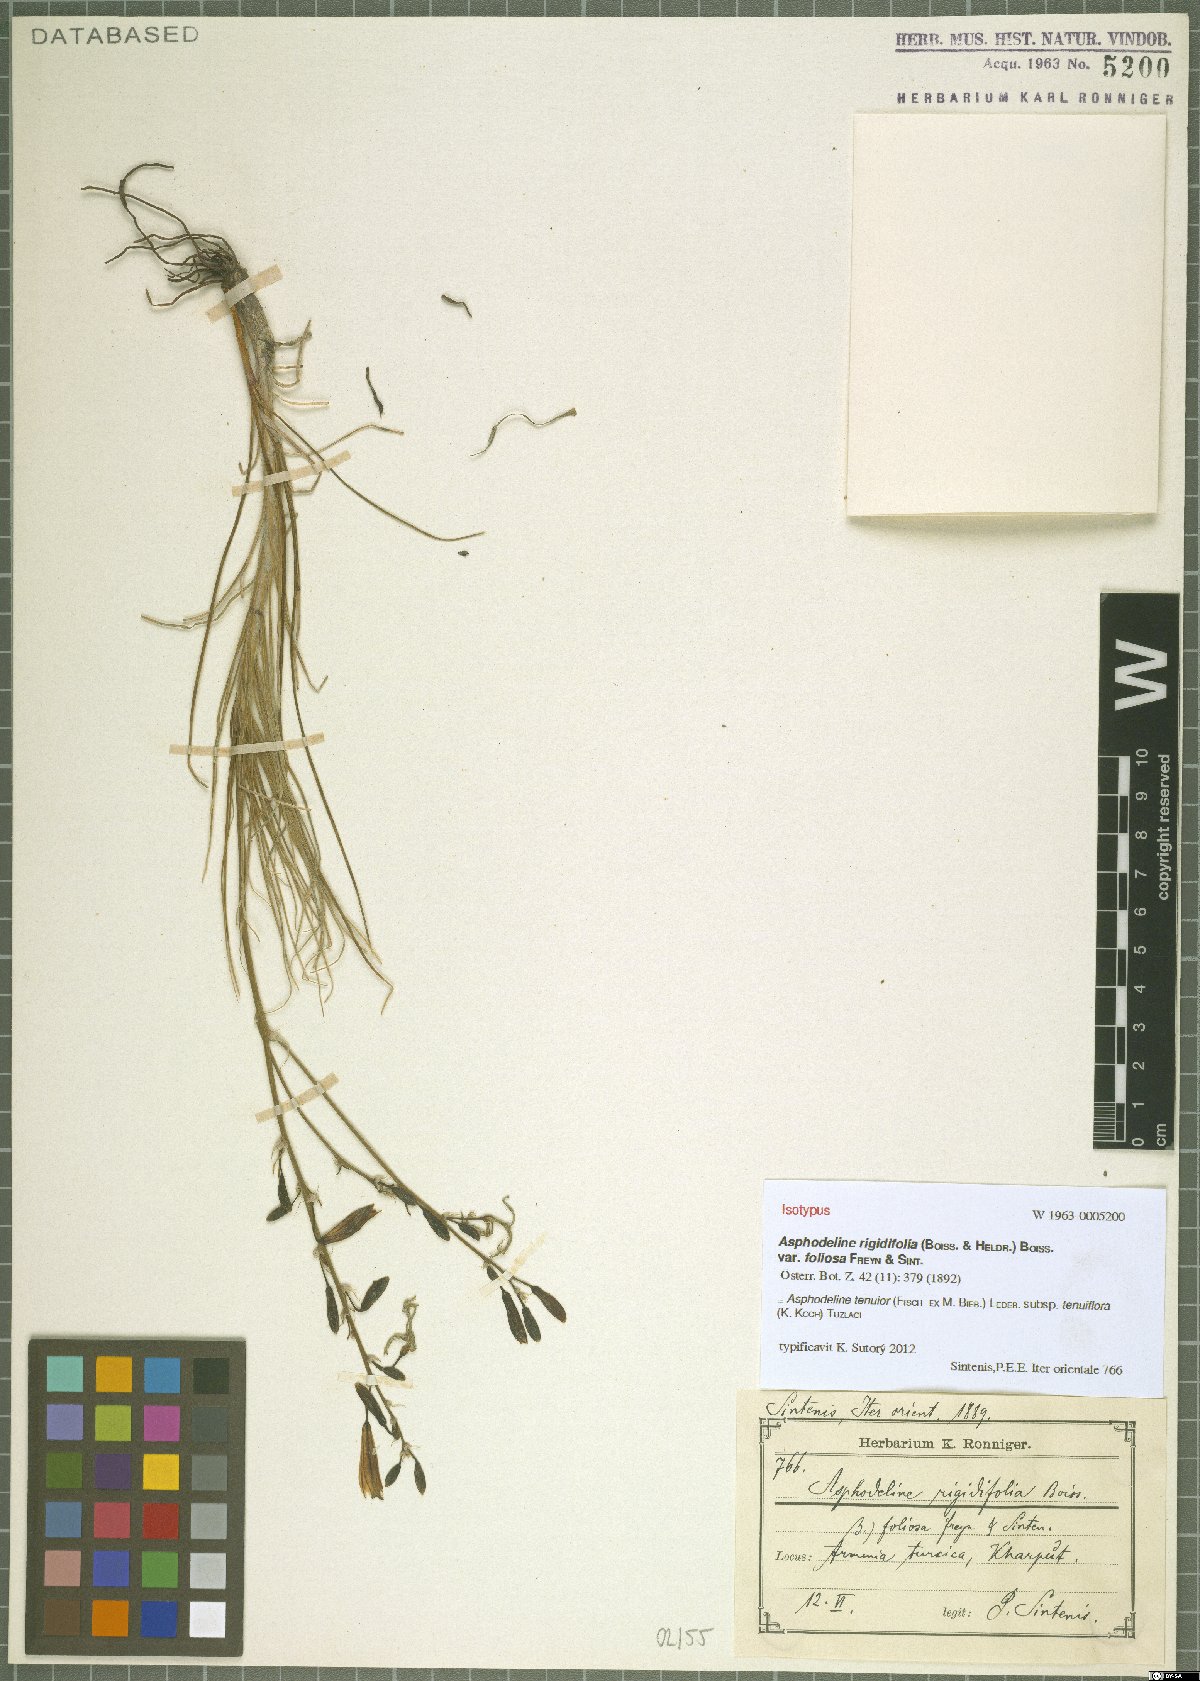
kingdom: Plantae
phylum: Tracheophyta
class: Liliopsida
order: Asparagales
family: Asphodelaceae
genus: Asphodeline
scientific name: Asphodeline tenuior
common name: Thin asphodeline
